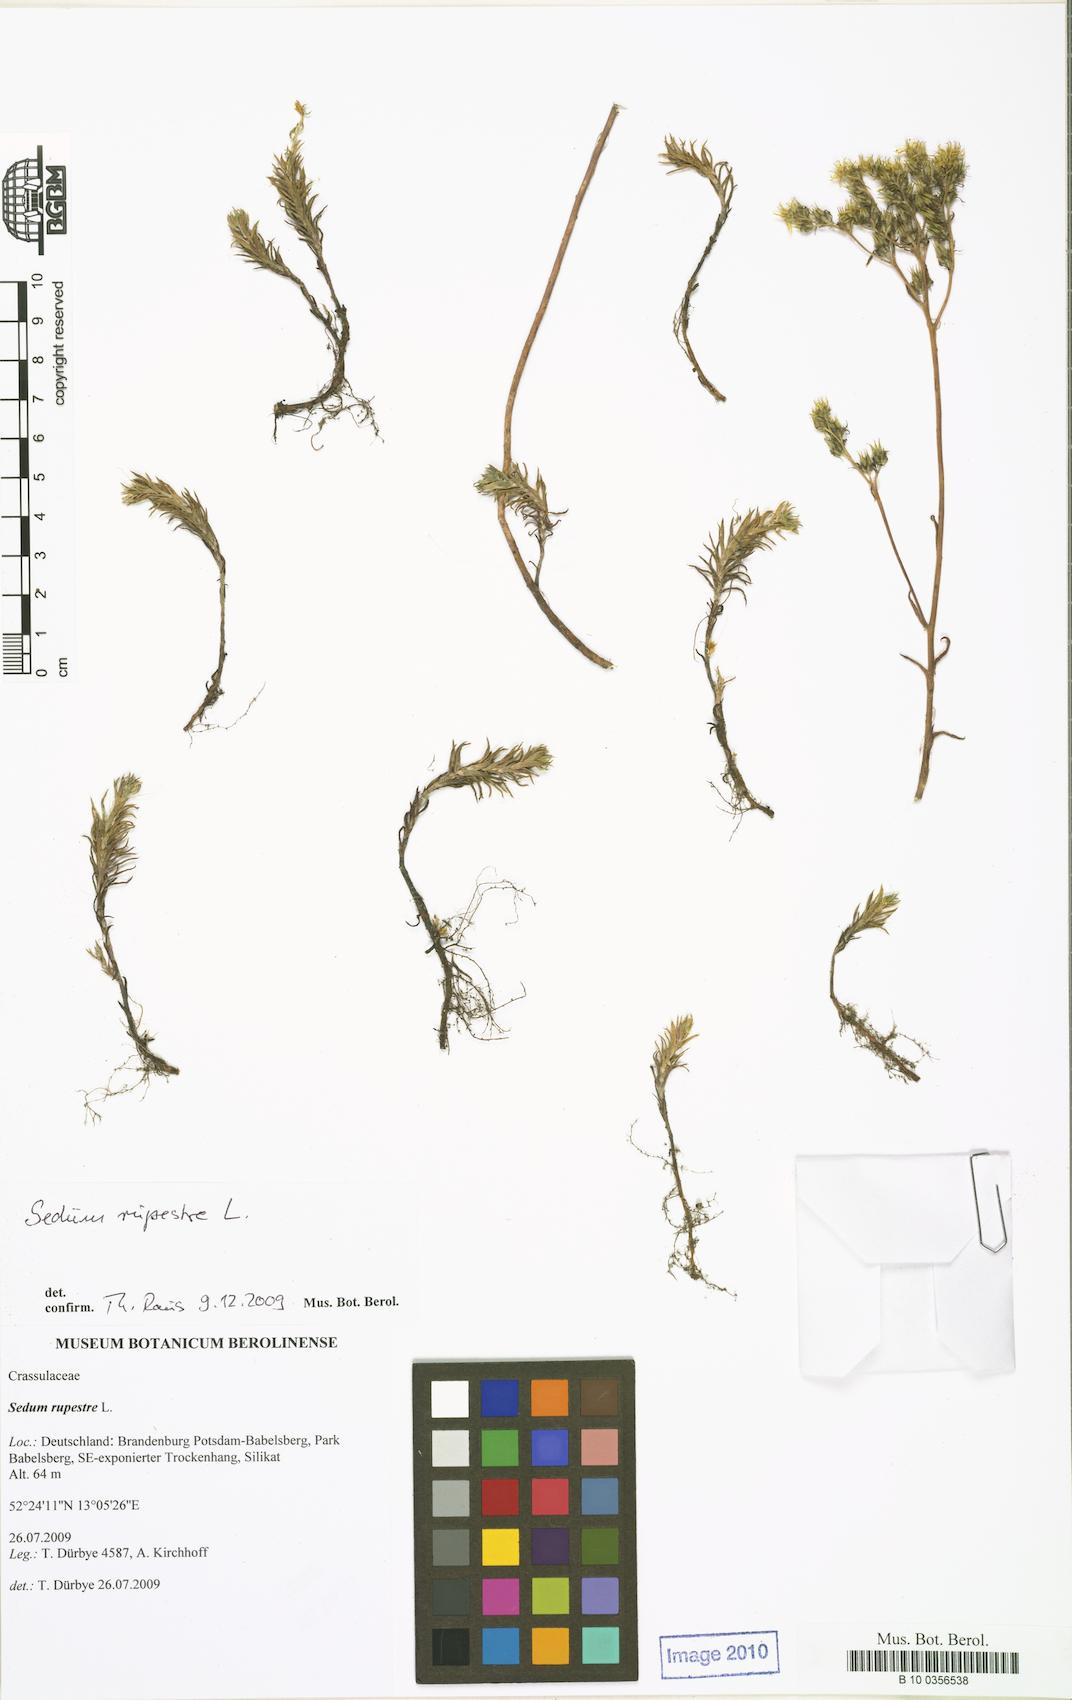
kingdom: Plantae
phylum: Tracheophyta
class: Magnoliopsida
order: Saxifragales
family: Crassulaceae
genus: Petrosedum
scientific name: Petrosedum rupestre
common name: Jenny's stonecrop
